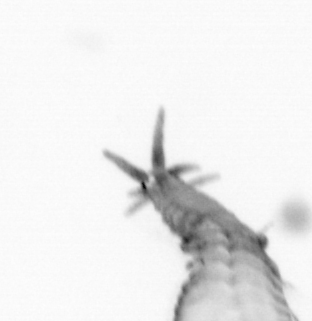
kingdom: Animalia
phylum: Annelida
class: Polychaeta
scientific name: Polychaeta
